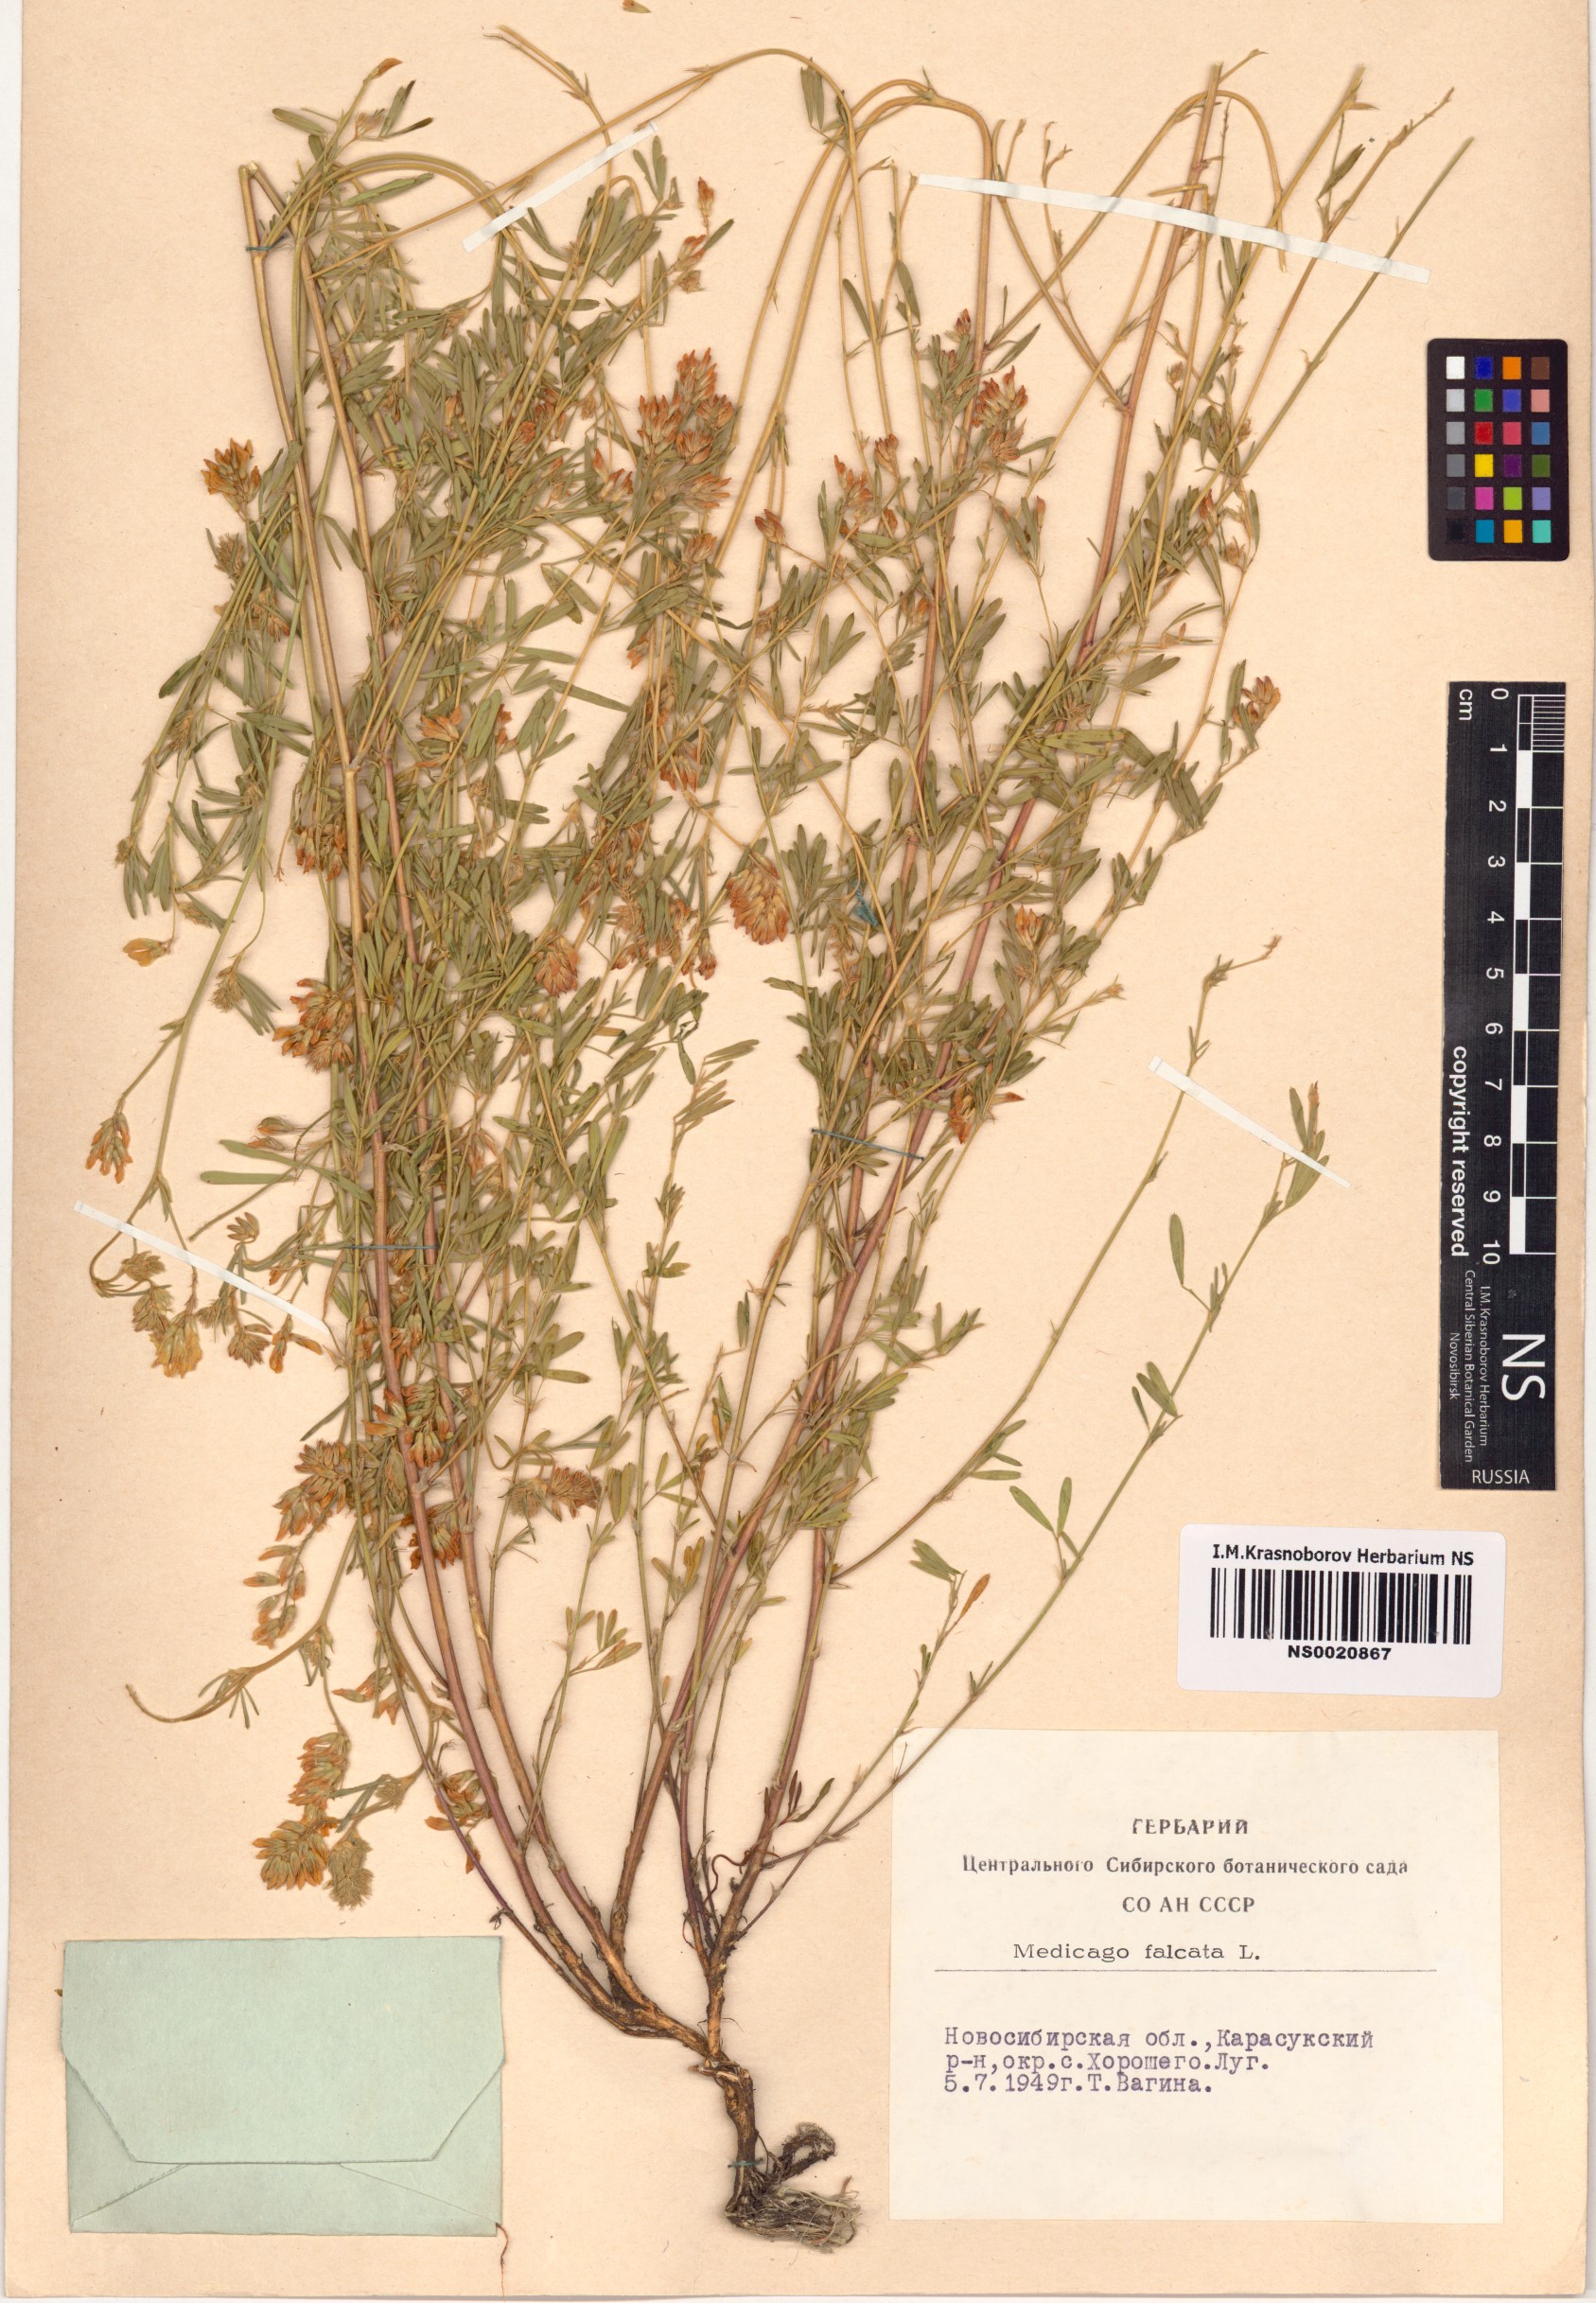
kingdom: Plantae
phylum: Tracheophyta
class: Magnoliopsida
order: Fabales
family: Fabaceae
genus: Medicago
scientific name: Medicago falcata
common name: Sickle medick
